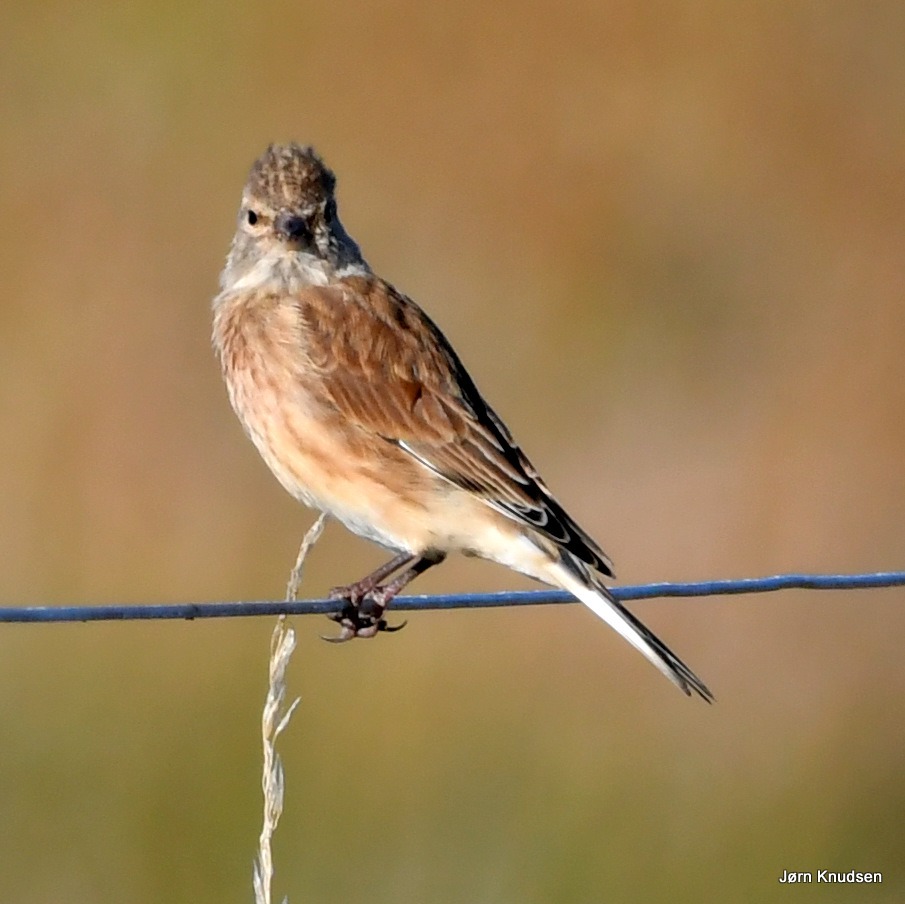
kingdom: Animalia
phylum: Chordata
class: Aves
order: Passeriformes
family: Fringillidae
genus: Linaria
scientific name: Linaria cannabina
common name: Tornirisk
